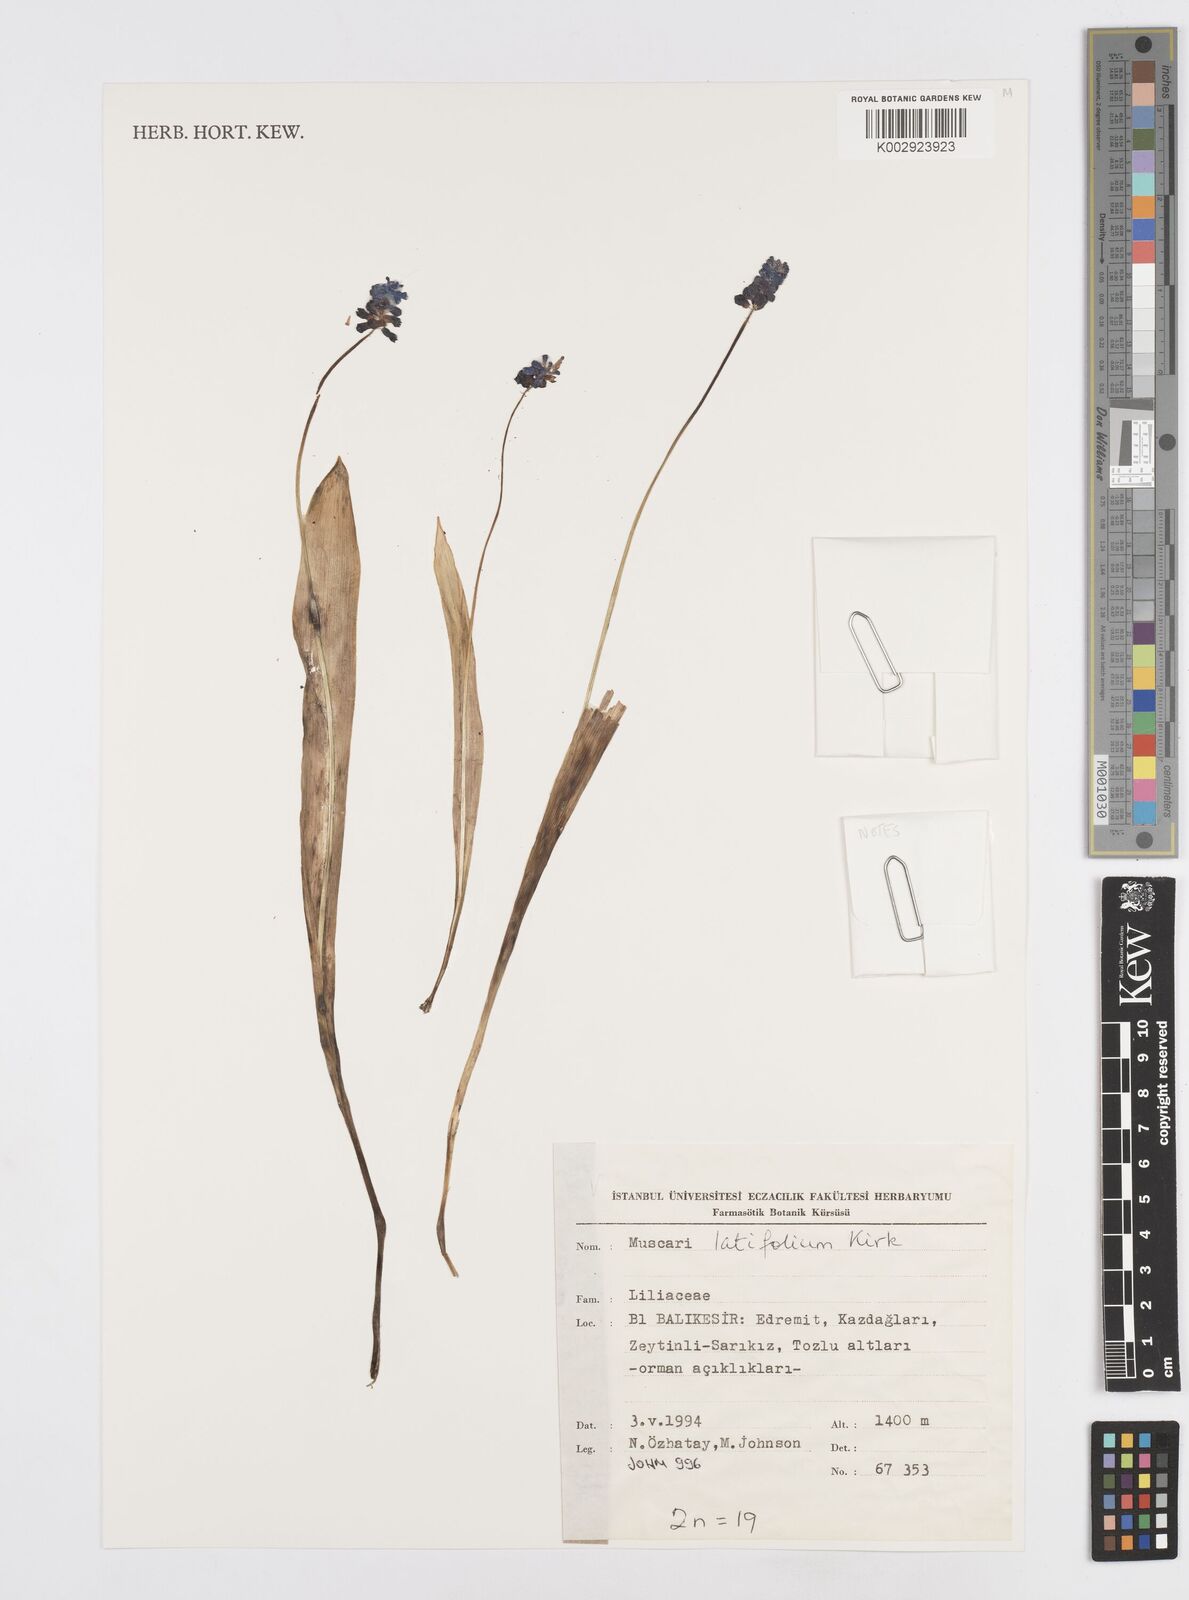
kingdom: Plantae
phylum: Tracheophyta
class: Liliopsida
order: Asparagales
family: Asparagaceae
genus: Muscari
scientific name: Muscari latifolium
